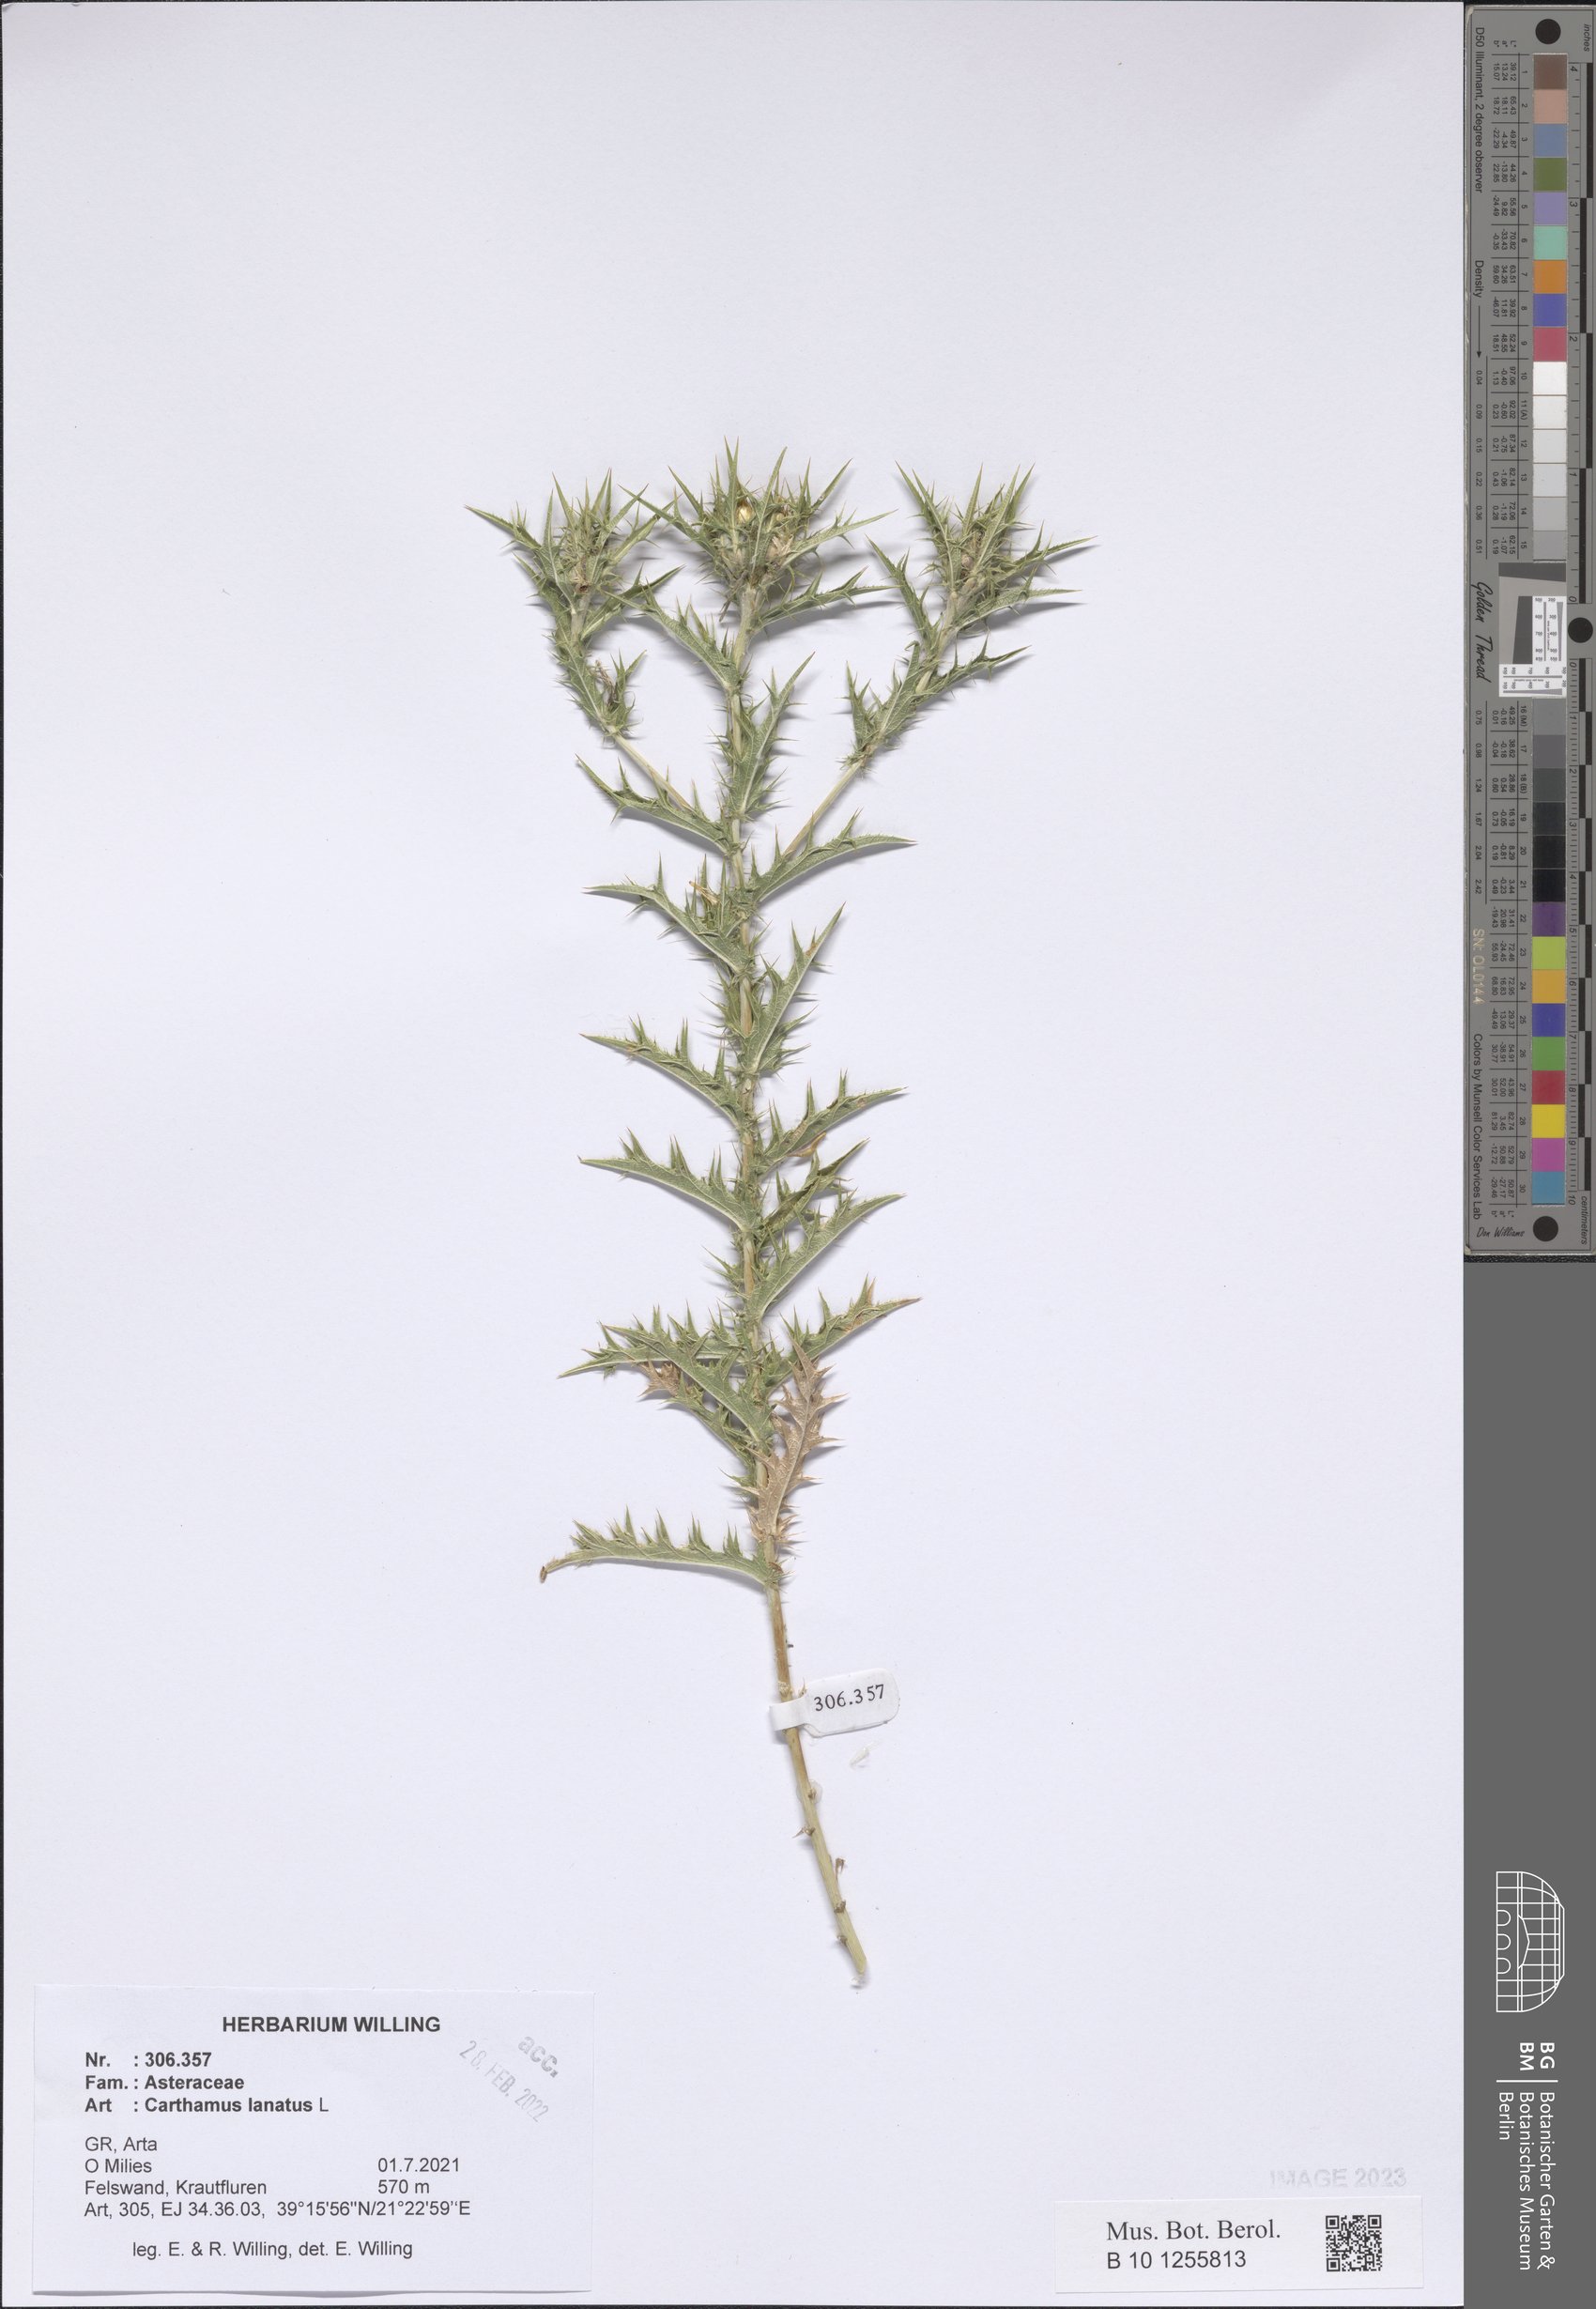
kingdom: Plantae
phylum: Tracheophyta
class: Magnoliopsida
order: Asterales
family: Asteraceae
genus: Carthamus
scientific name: Carthamus lanatus
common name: Downy safflower
